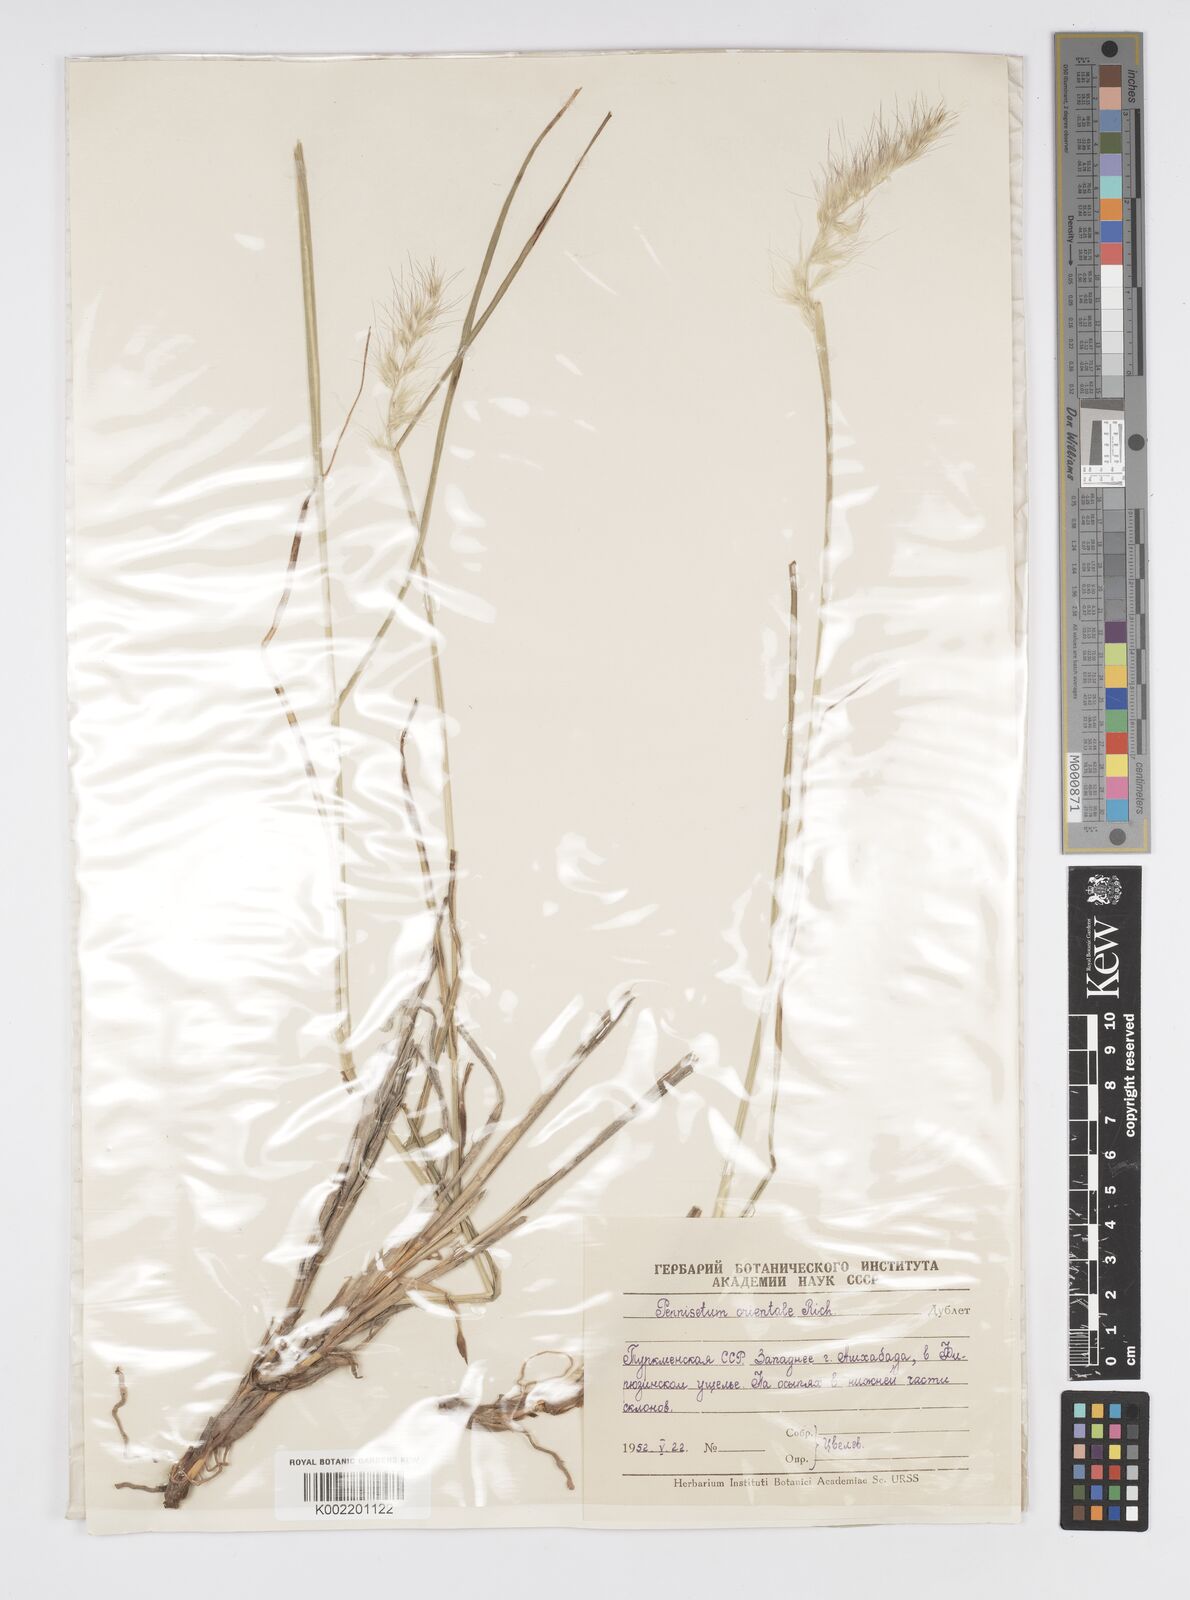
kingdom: Plantae
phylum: Tracheophyta
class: Liliopsida
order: Poales
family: Poaceae
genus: Cenchrus
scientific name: Cenchrus orientalis
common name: Oriental fountain grass
